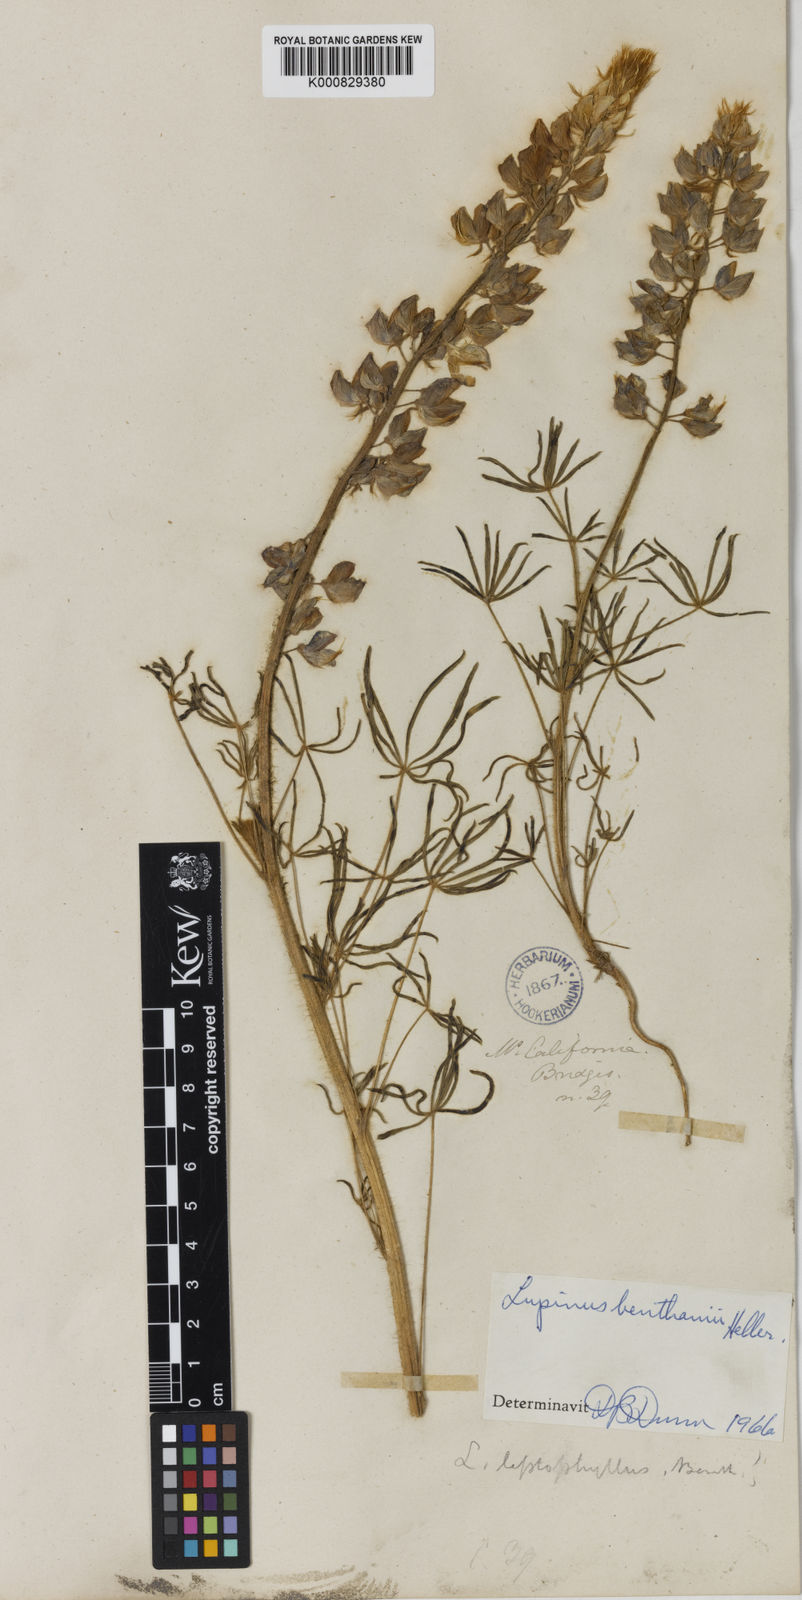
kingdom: Plantae
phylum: Tracheophyta
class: Magnoliopsida
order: Fabales
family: Fabaceae
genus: Lupinus
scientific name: Lupinus benthamii
